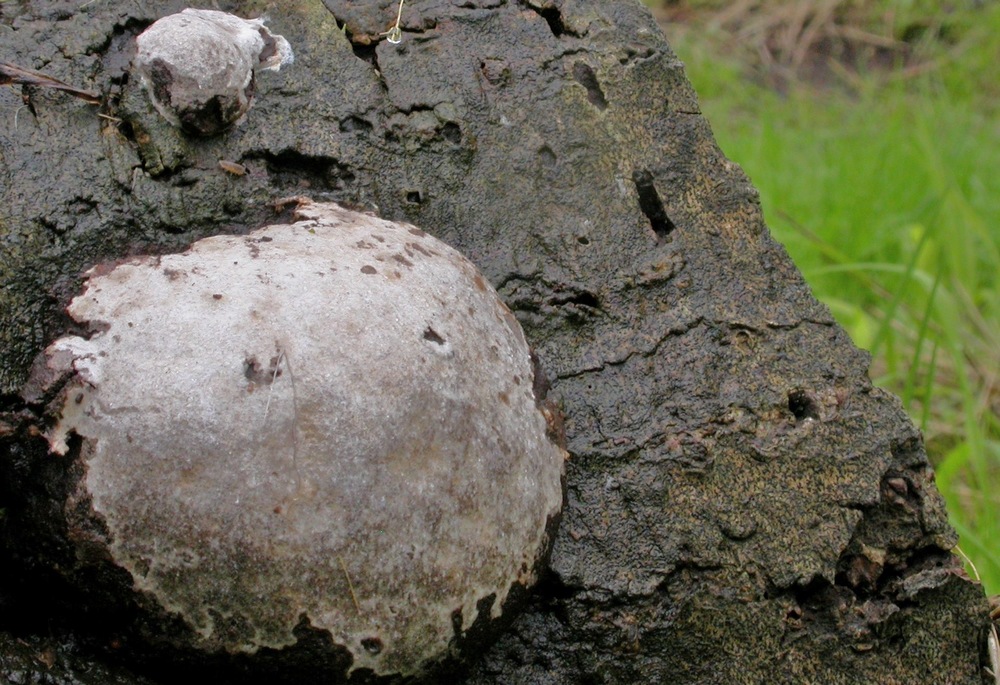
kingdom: Protozoa
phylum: Mycetozoa
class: Myxomycetes
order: Cribrariales
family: Tubiferaceae
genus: Reticularia
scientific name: Reticularia lycoperdon
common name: skinnende støvpude
